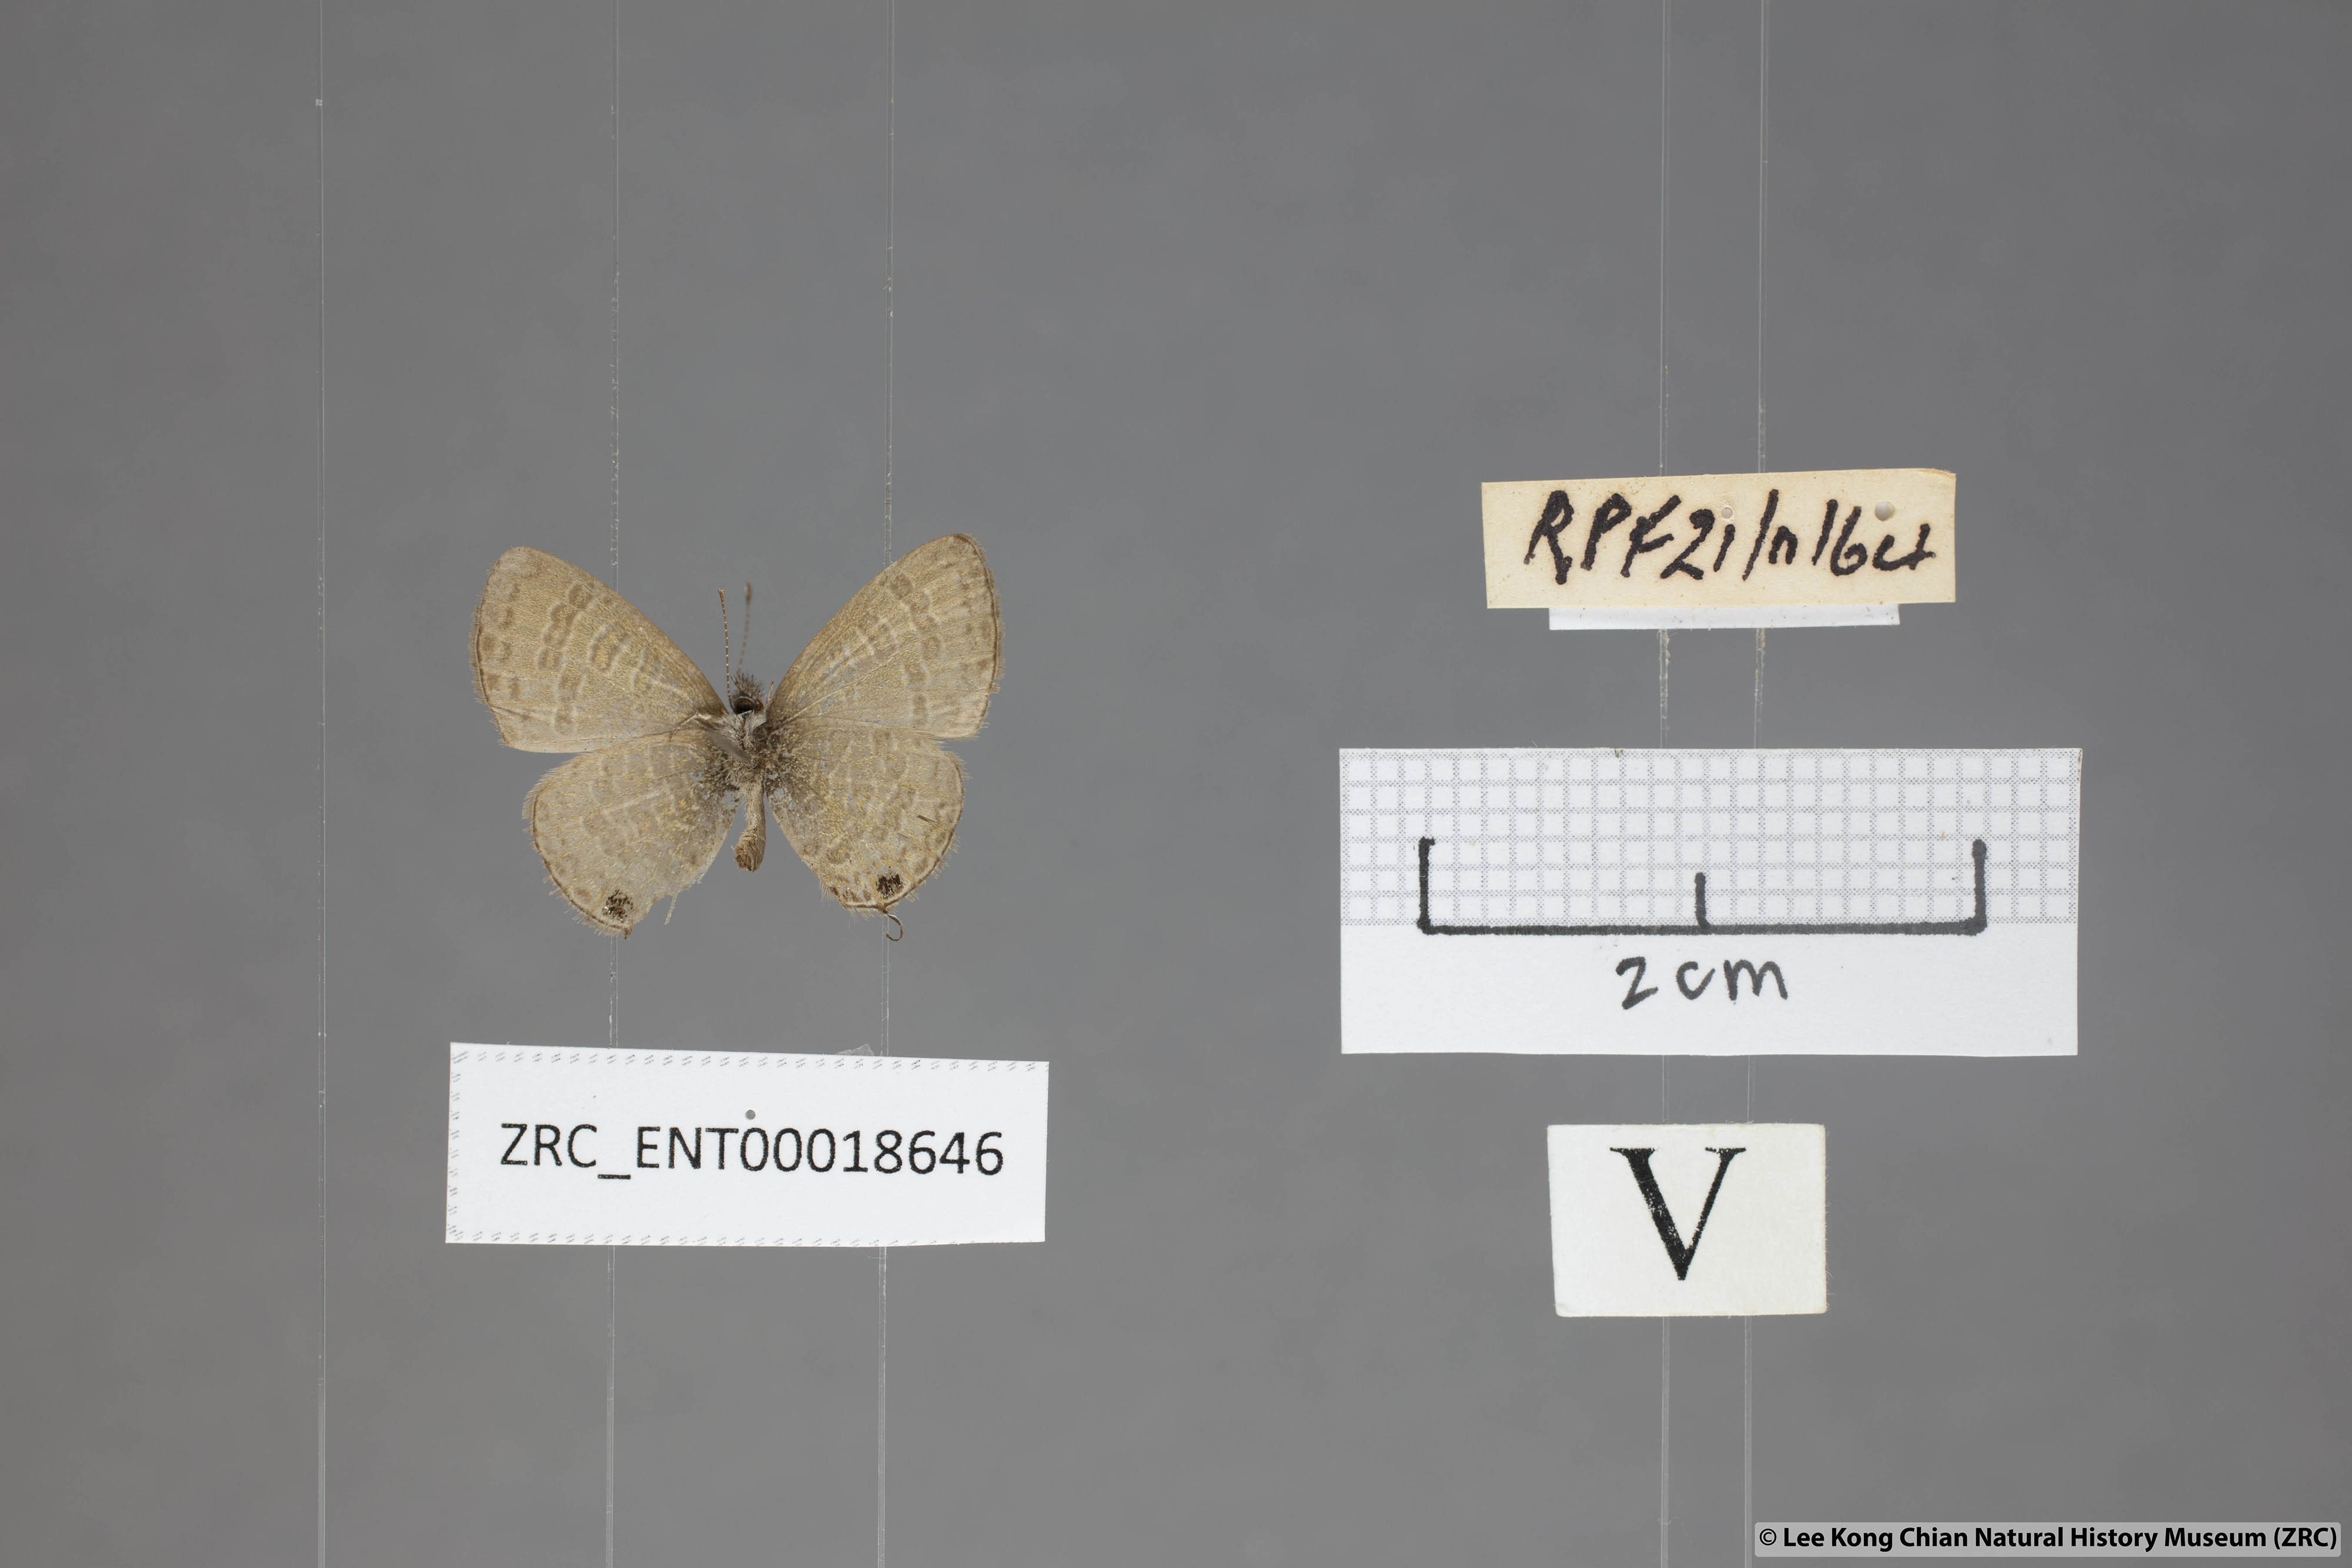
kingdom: Animalia
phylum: Arthropoda
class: Insecta
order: Lepidoptera
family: Lycaenidae
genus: Prosotas
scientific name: Prosotas nora
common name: Common line blue
